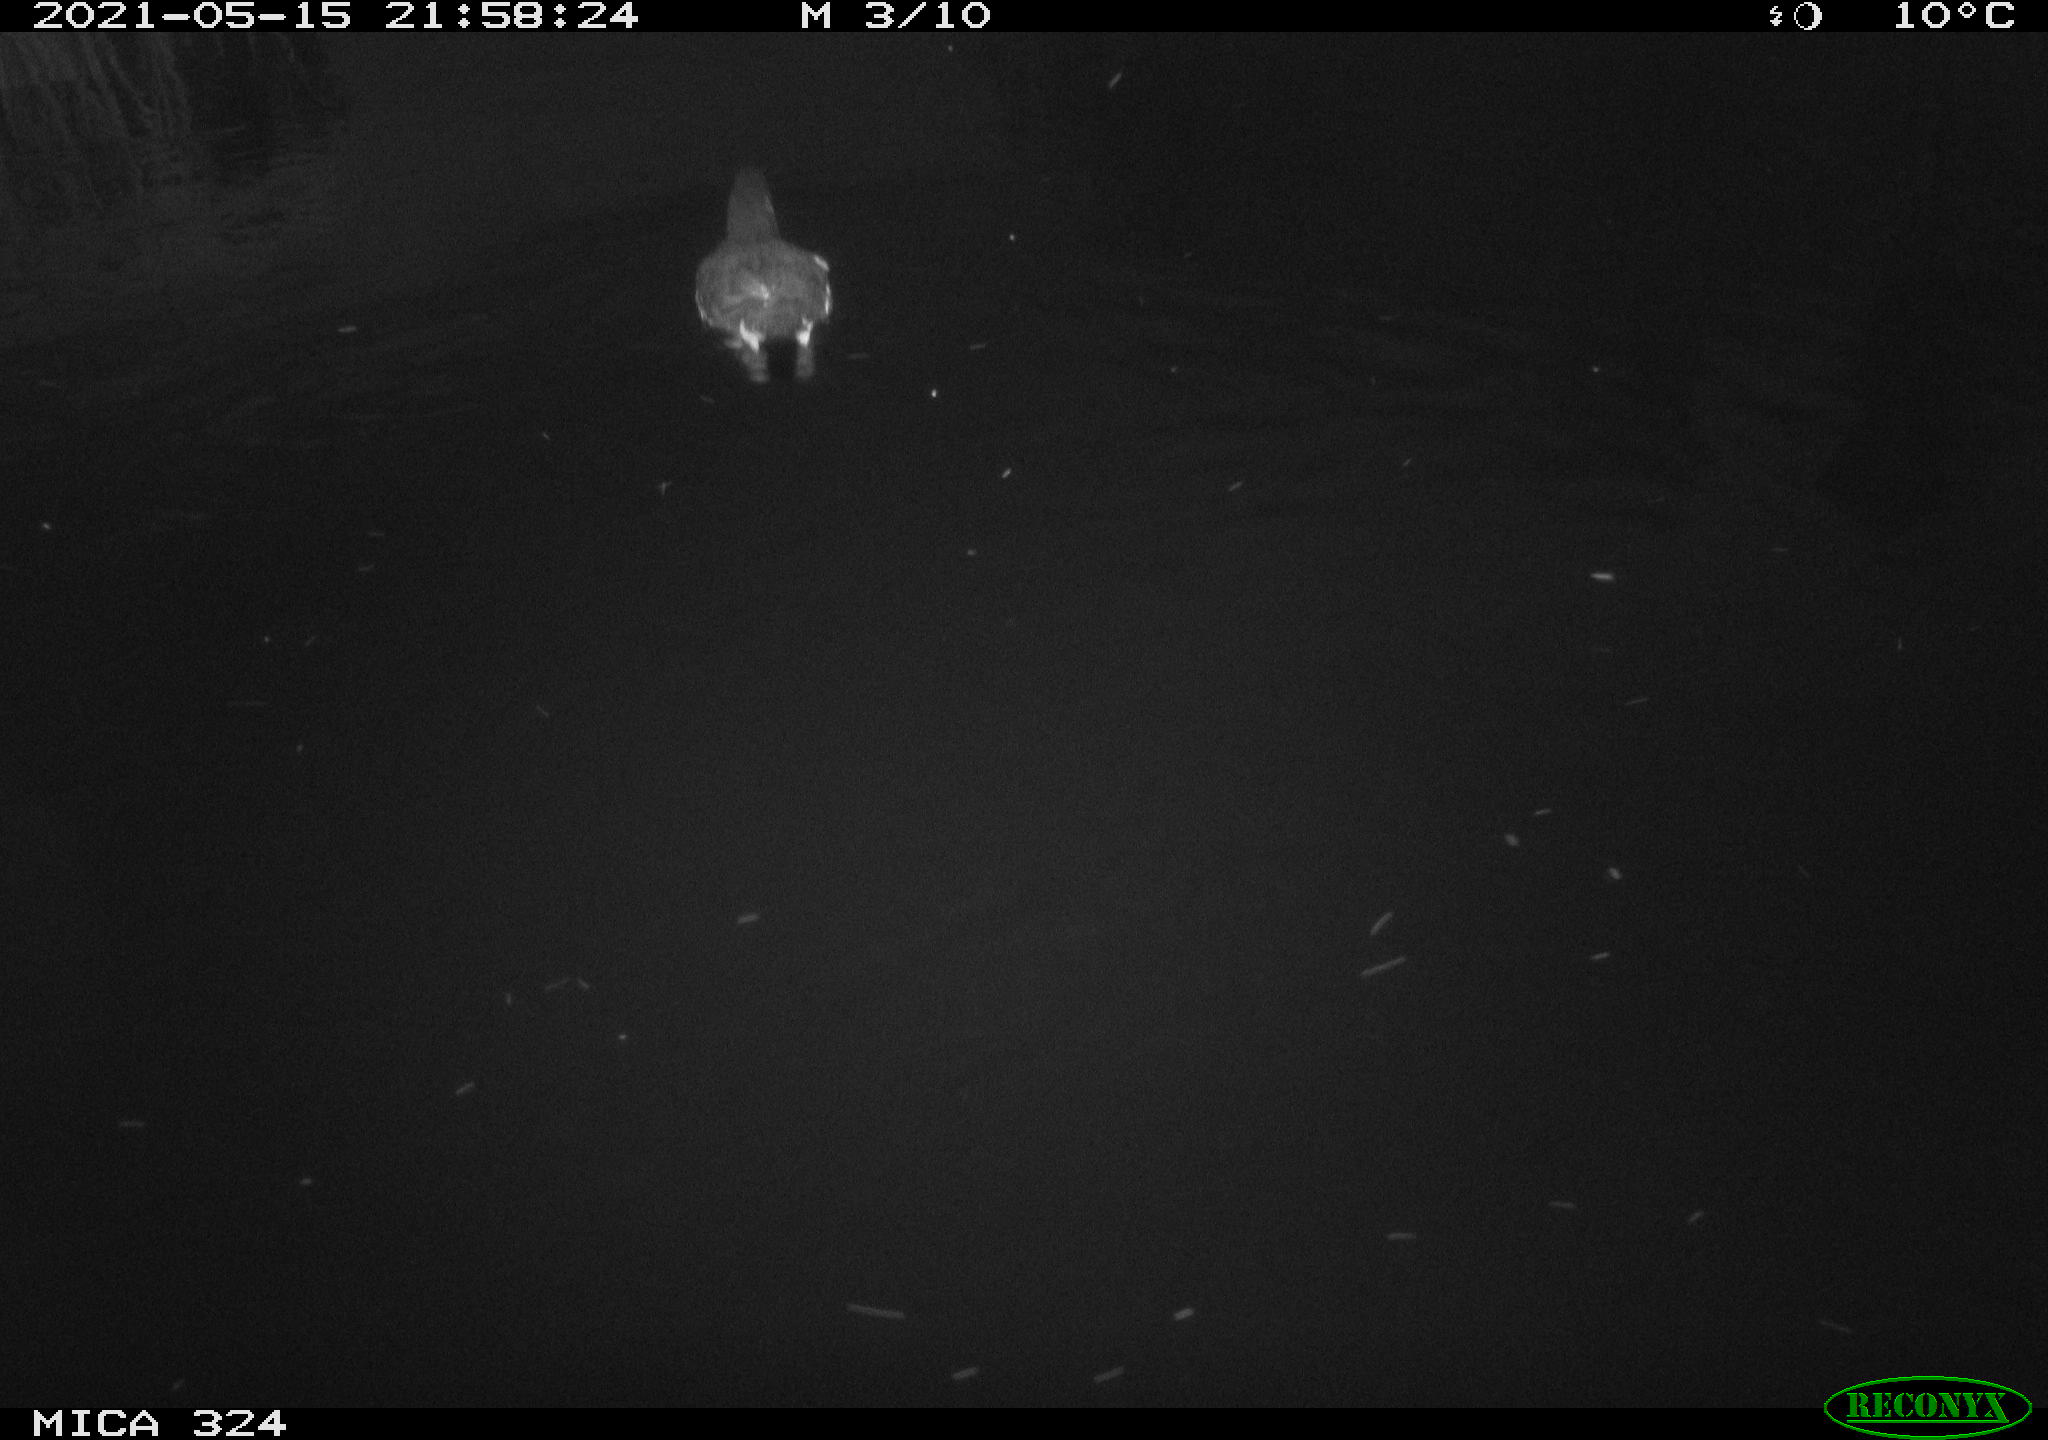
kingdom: Animalia
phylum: Chordata
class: Aves
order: Gruiformes
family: Rallidae
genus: Gallinula
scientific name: Gallinula chloropus
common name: Common moorhen
